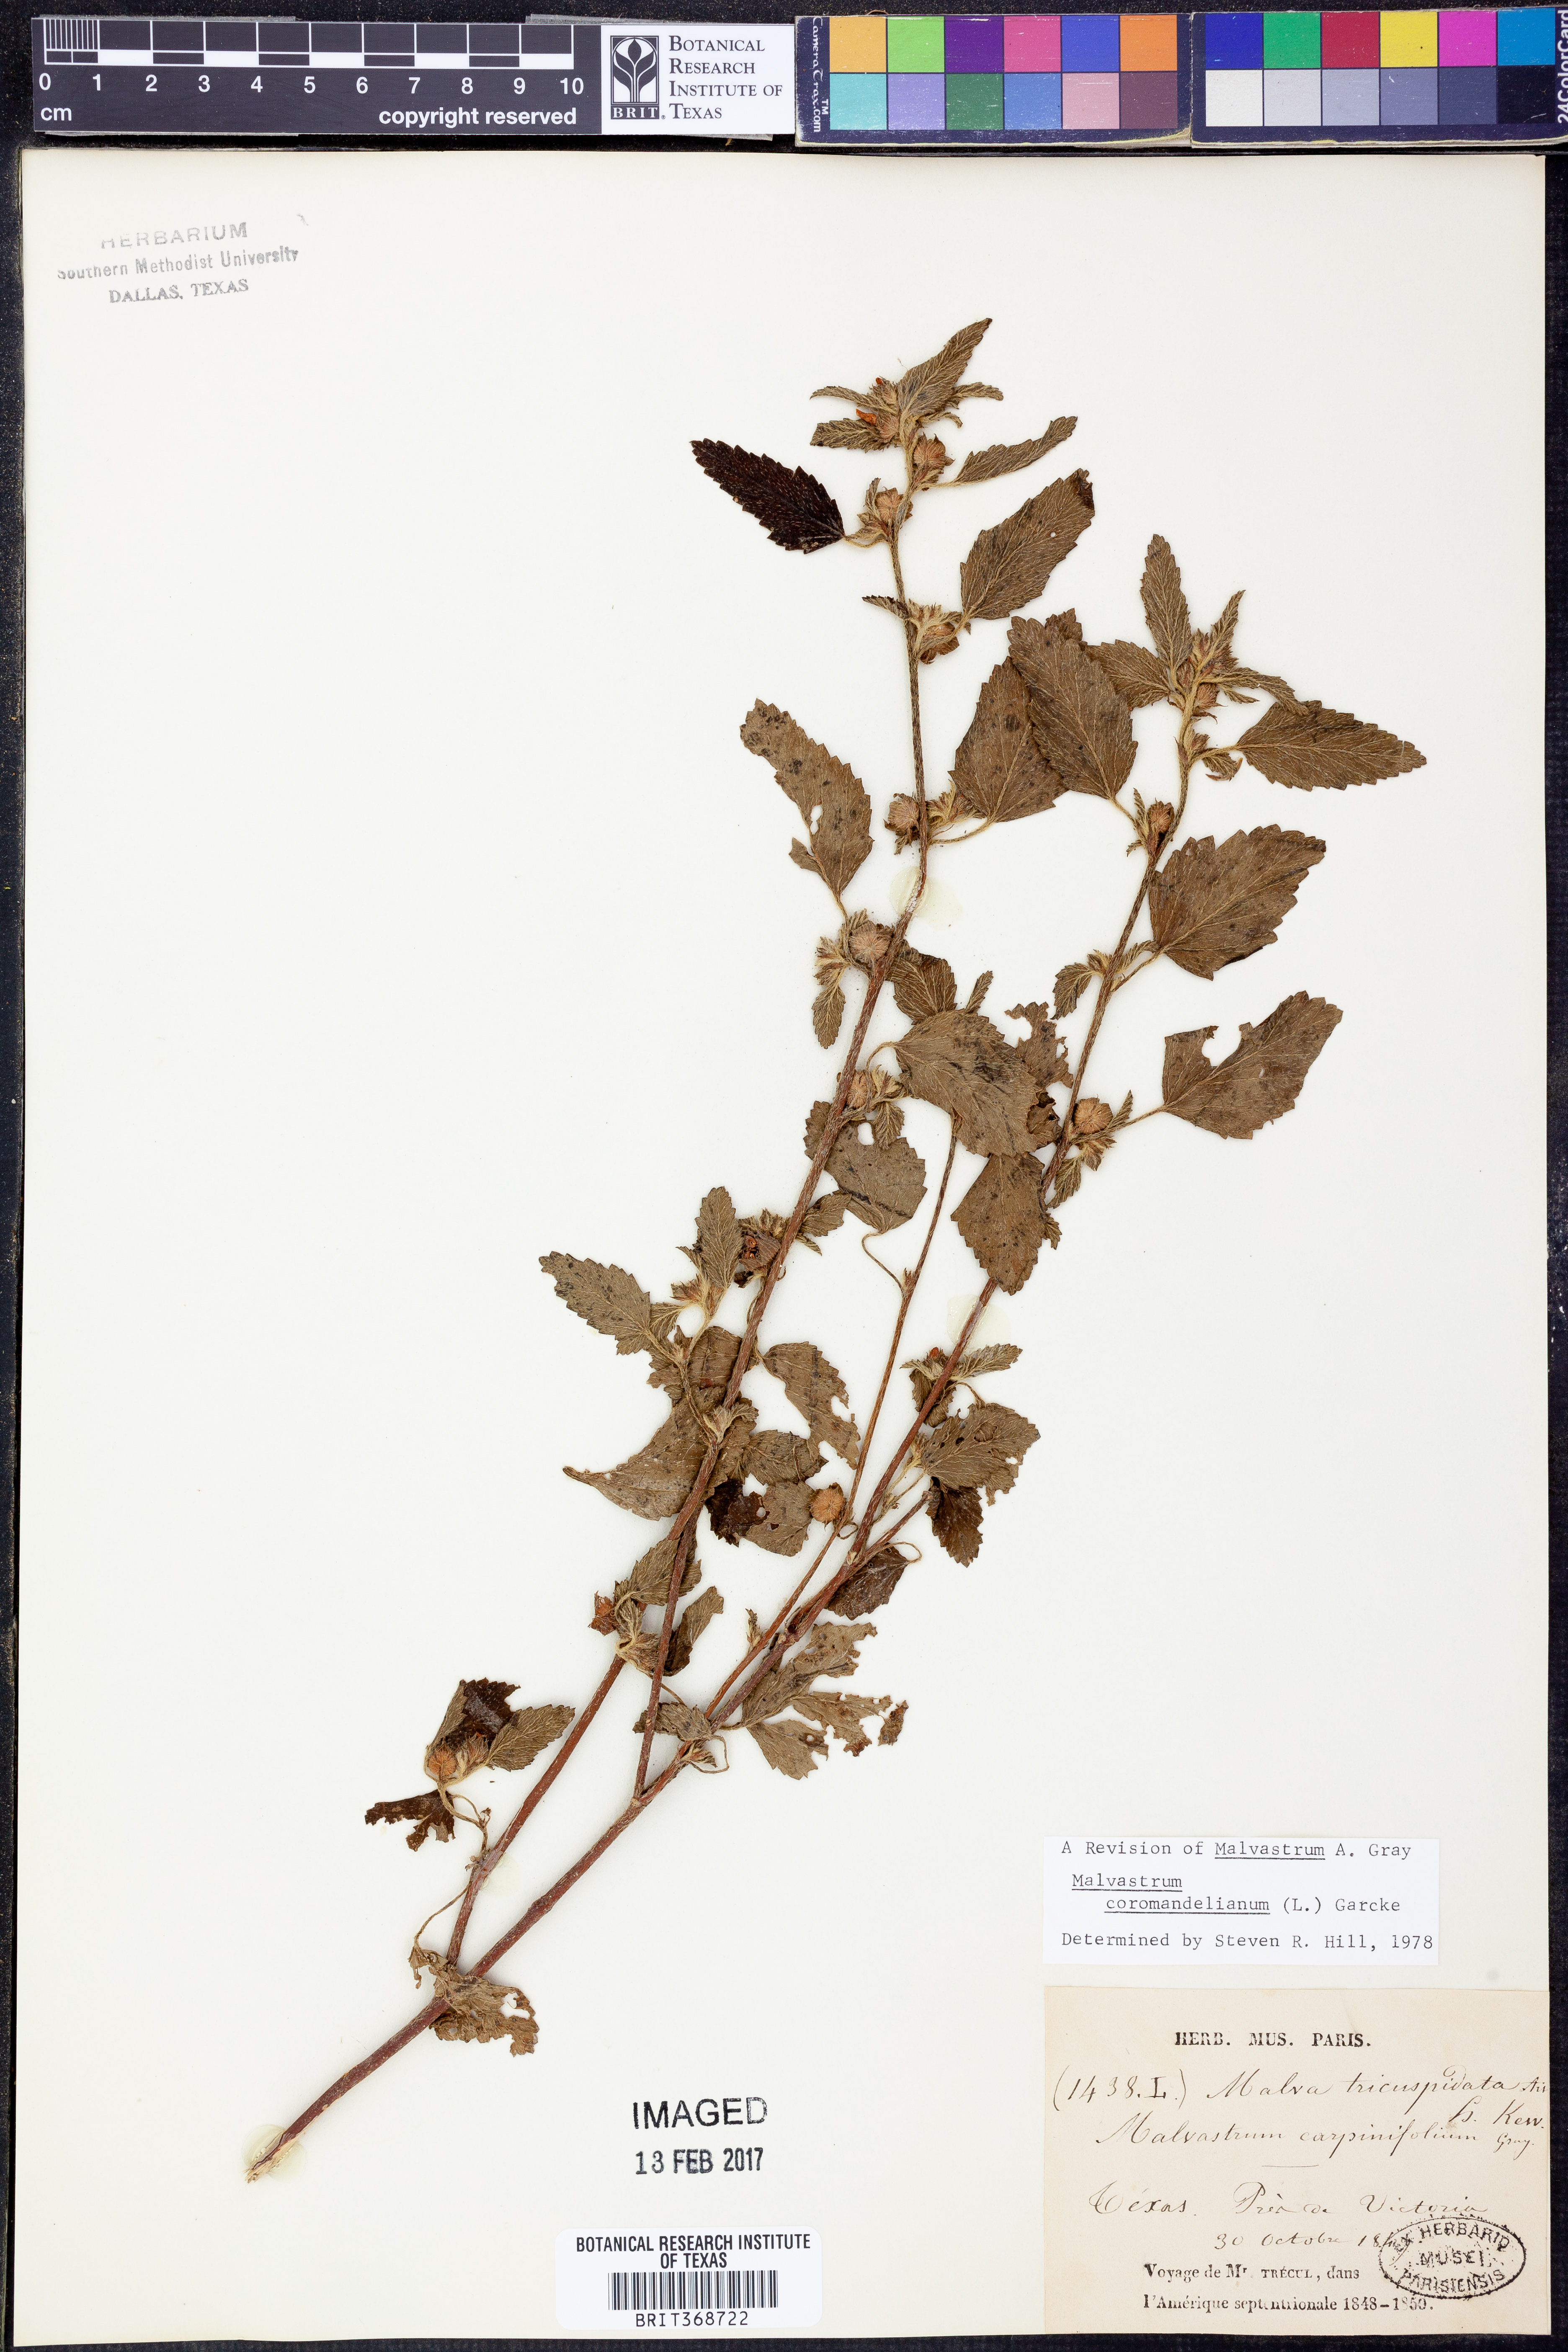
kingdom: Plantae
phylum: Tracheophyta
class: Magnoliopsida
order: Malvales
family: Malvaceae
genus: Malvastrum
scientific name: Malvastrum coromandelianum
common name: Threelobe false mallow
